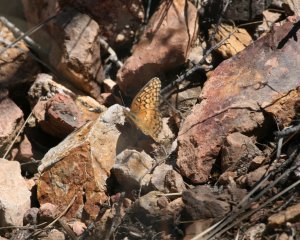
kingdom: Animalia
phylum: Arthropoda
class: Insecta
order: Lepidoptera
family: Nymphalidae
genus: Euptoieta
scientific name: Euptoieta claudia
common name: Variegated Fritillary
